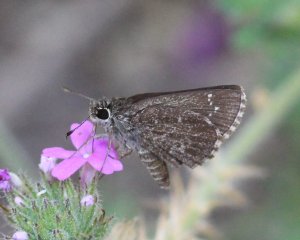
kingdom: Animalia
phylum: Arthropoda
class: Insecta
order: Lepidoptera
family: Hesperiidae
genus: Mastor
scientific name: Mastor celia
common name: Celia's Roadside-Skipper
